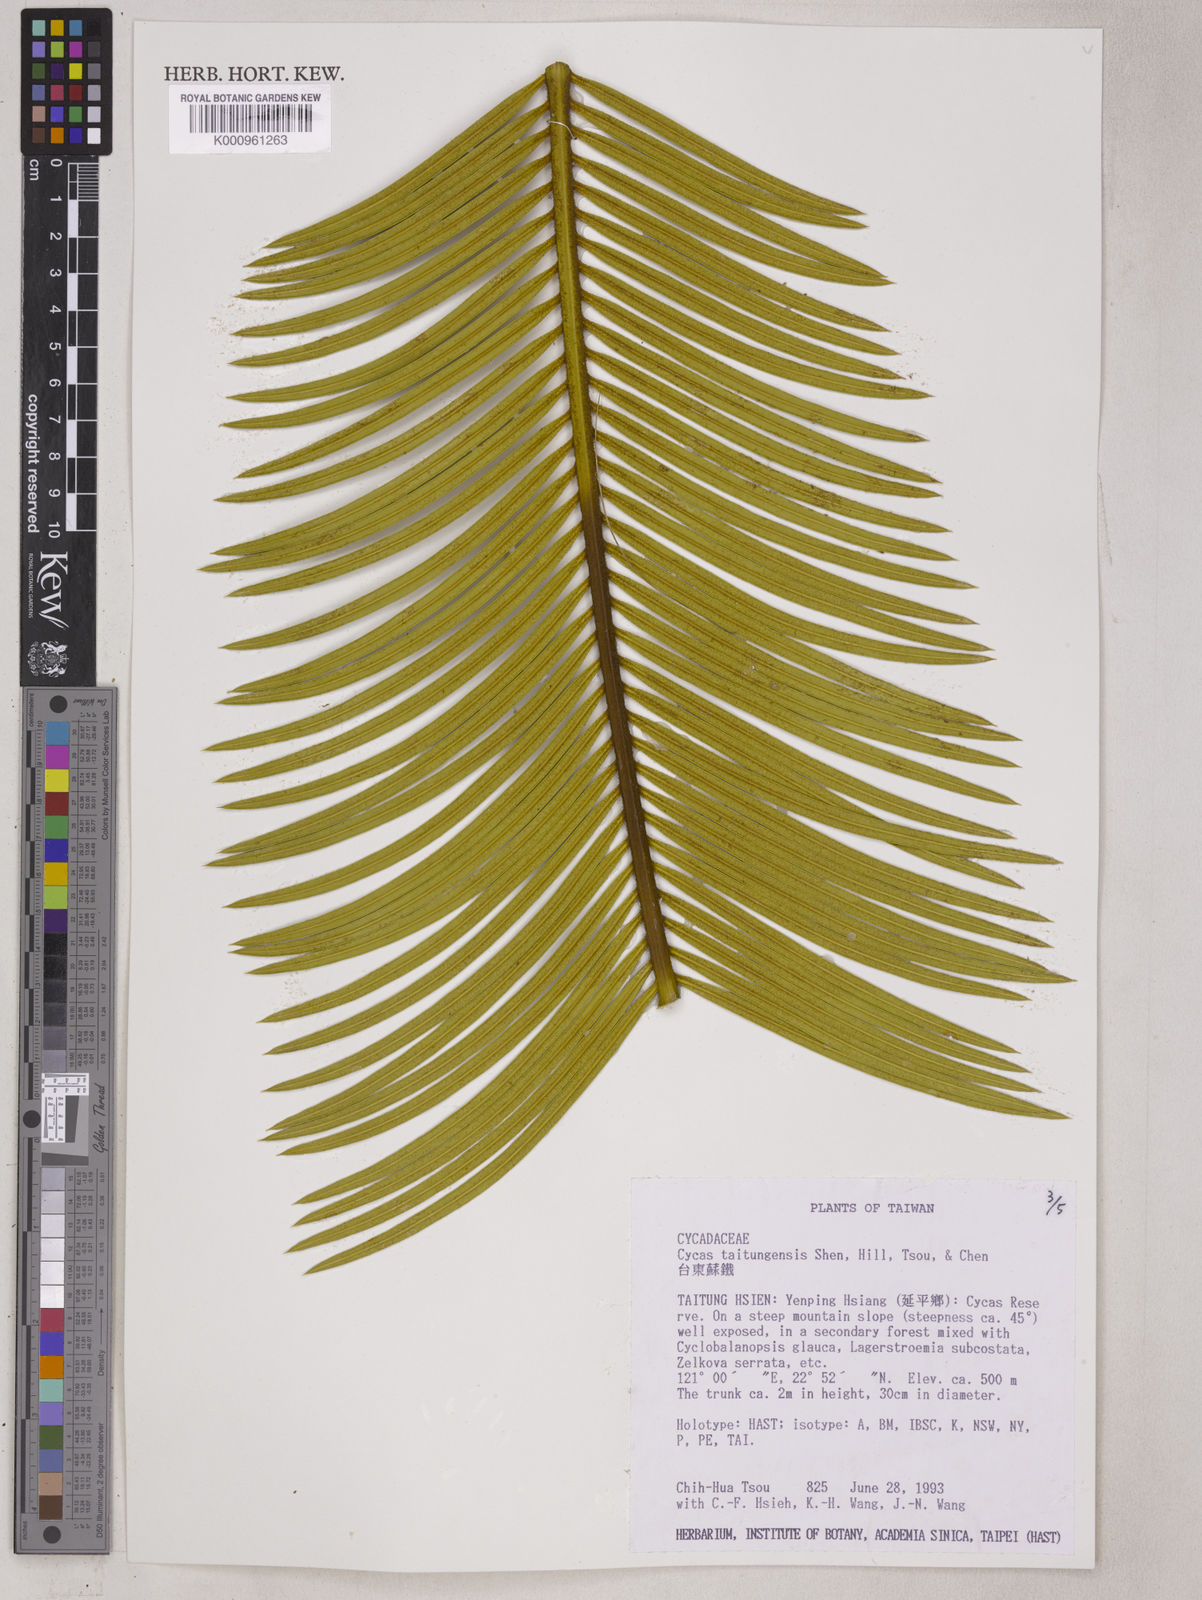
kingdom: Plantae
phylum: Tracheophyta
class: Cycadopsida
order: Cycadales
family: Cycadaceae
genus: Cycas
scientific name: Cycas
